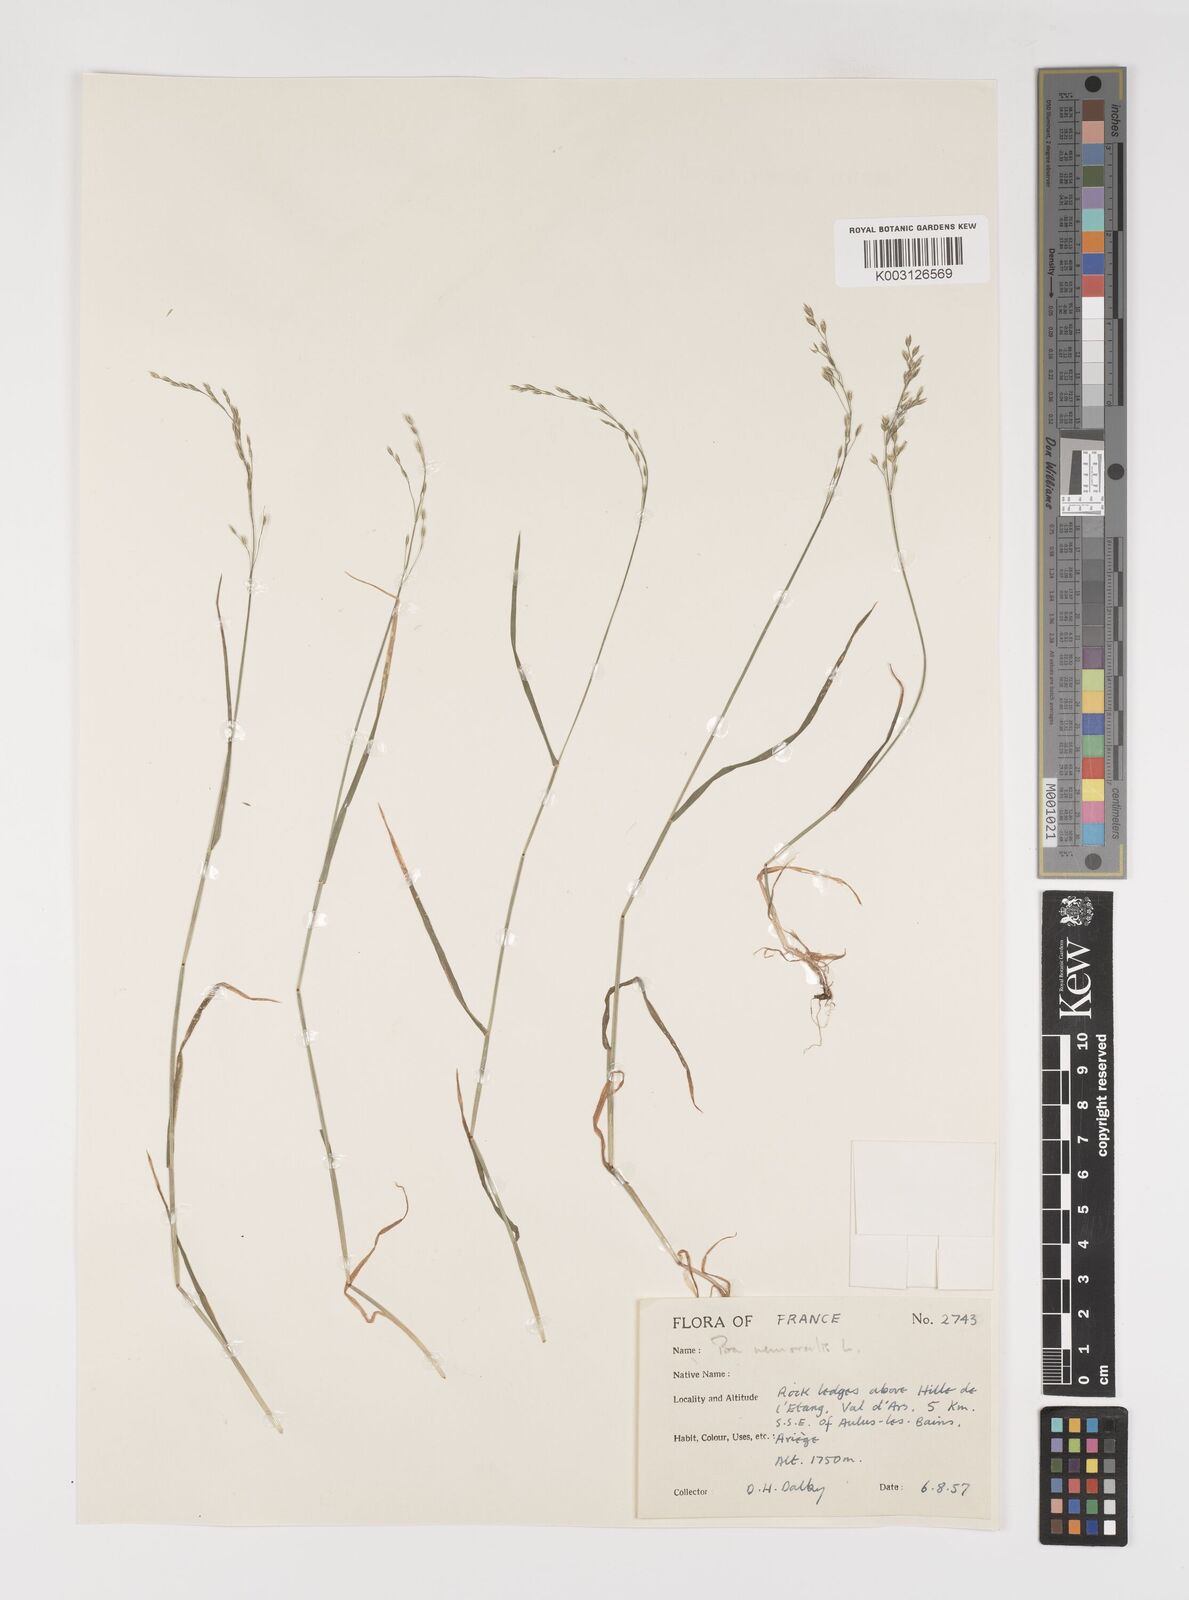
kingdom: Plantae
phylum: Tracheophyta
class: Liliopsida
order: Poales
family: Poaceae
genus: Poa
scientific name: Poa nemoralis
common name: Wood bluegrass
